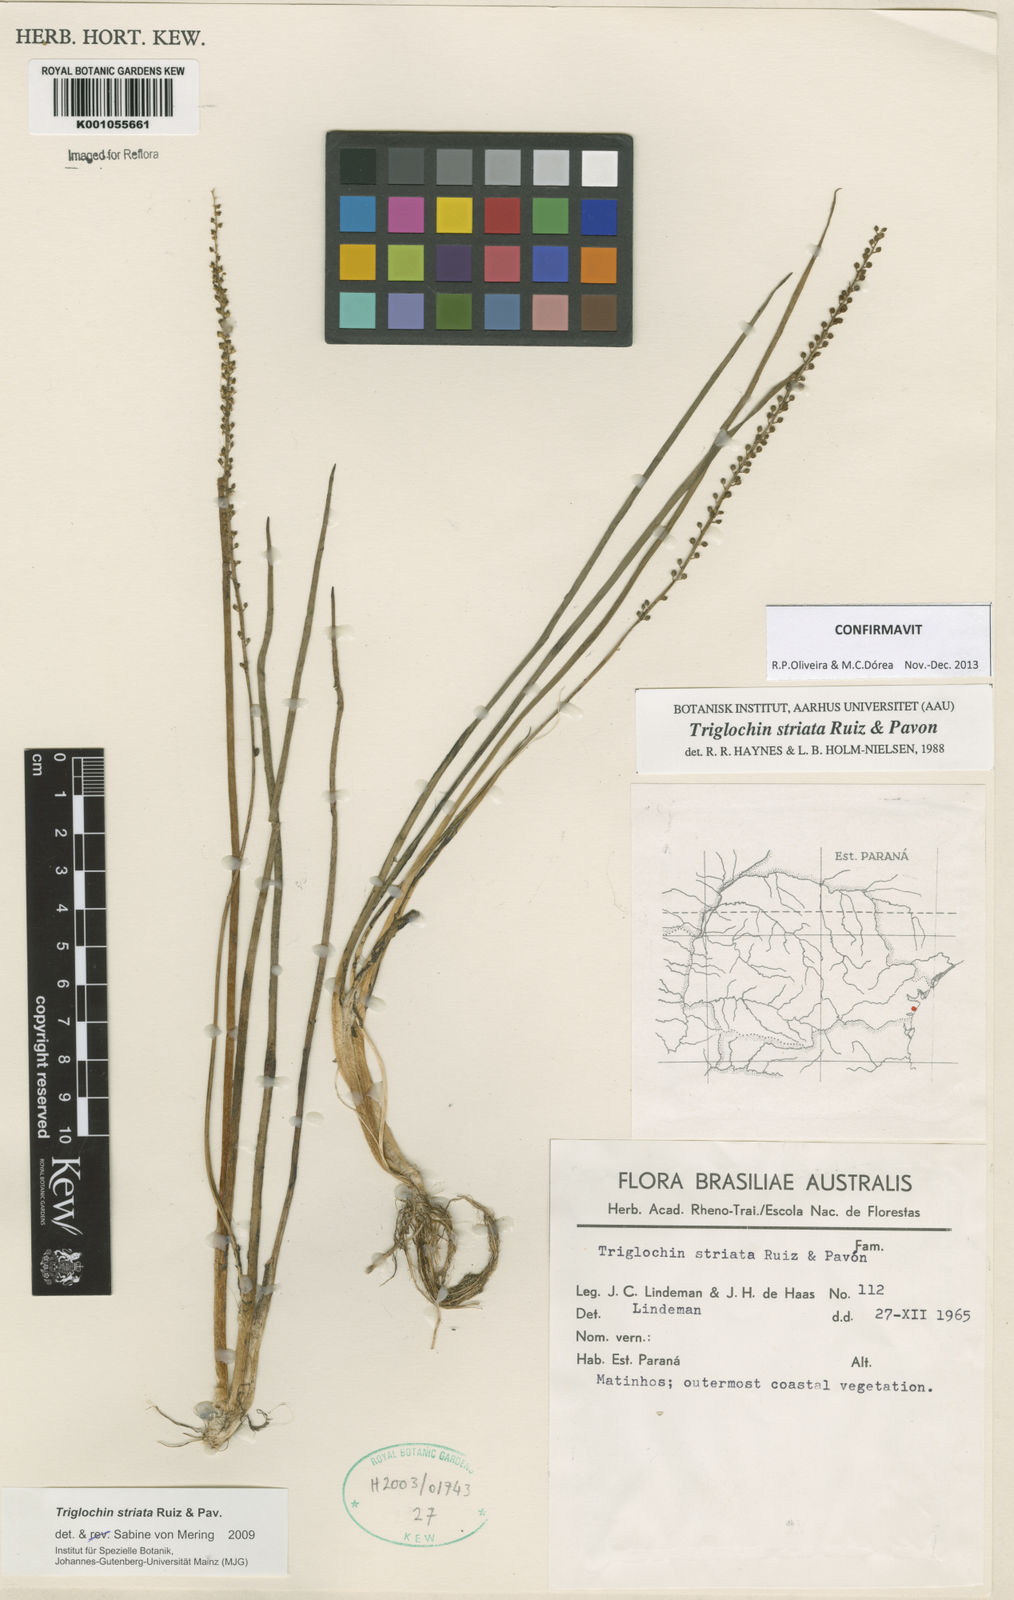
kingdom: Plantae
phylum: Tracheophyta
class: Liliopsida
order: Alismatales
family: Juncaginaceae
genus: Triglochin
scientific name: Triglochin striata
